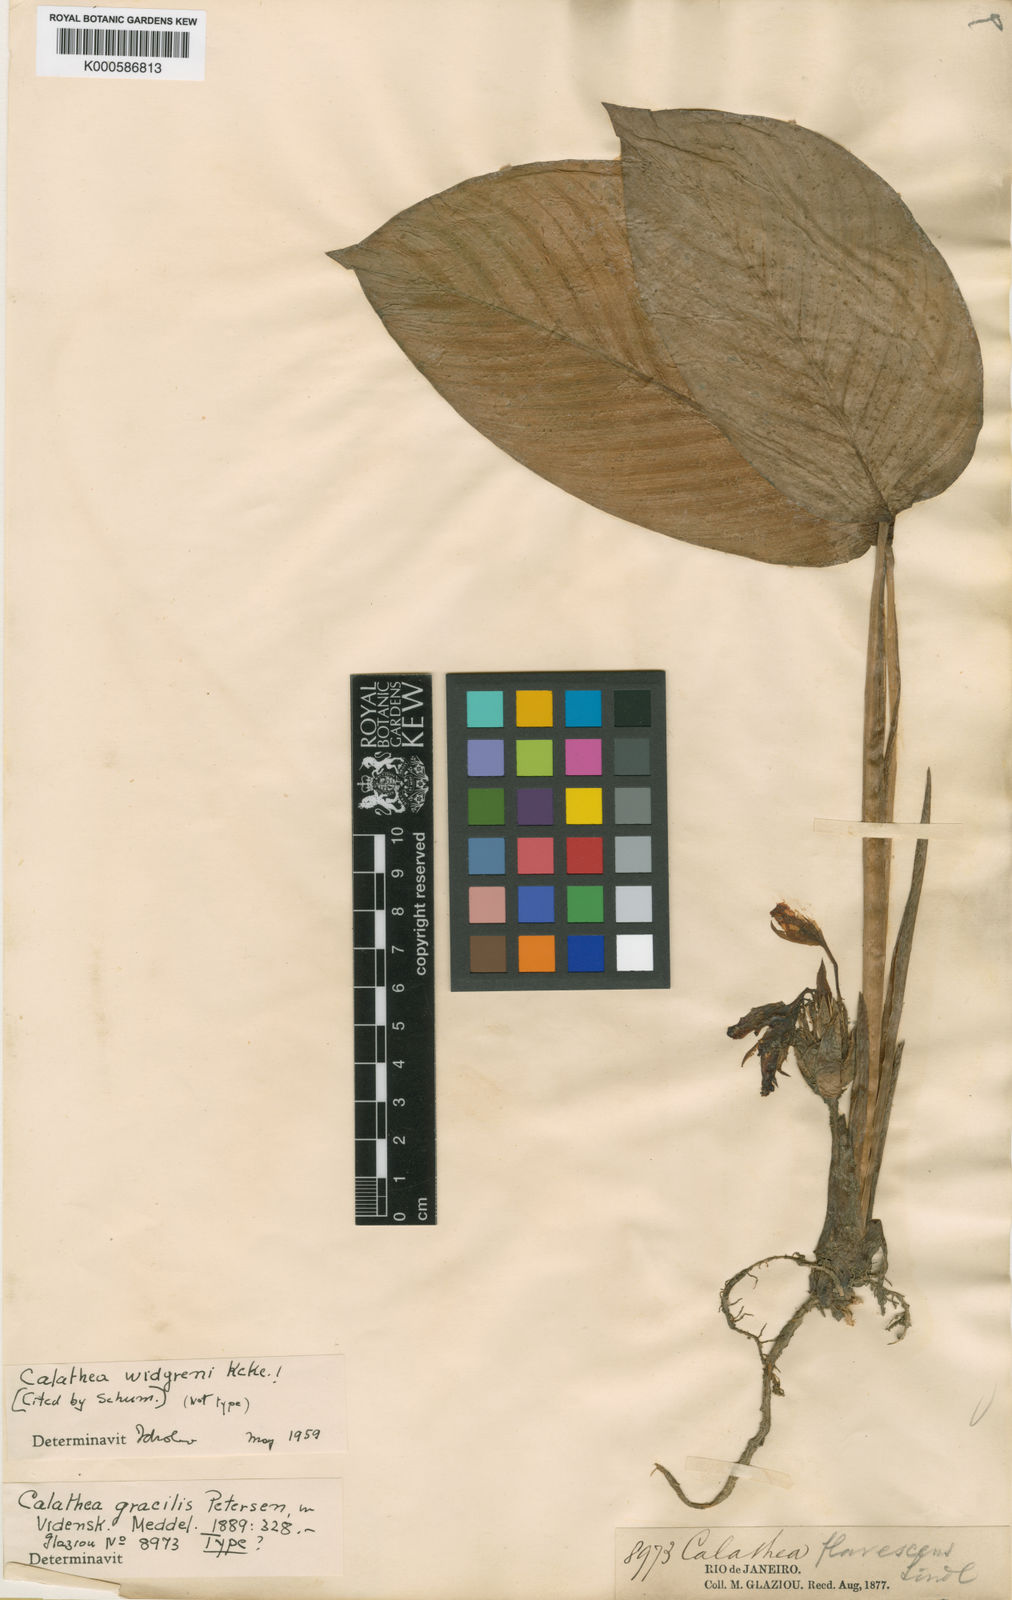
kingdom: Plantae
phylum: Tracheophyta
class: Liliopsida
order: Zingiberales
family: Marantaceae
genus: Calathea
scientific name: Calathea
